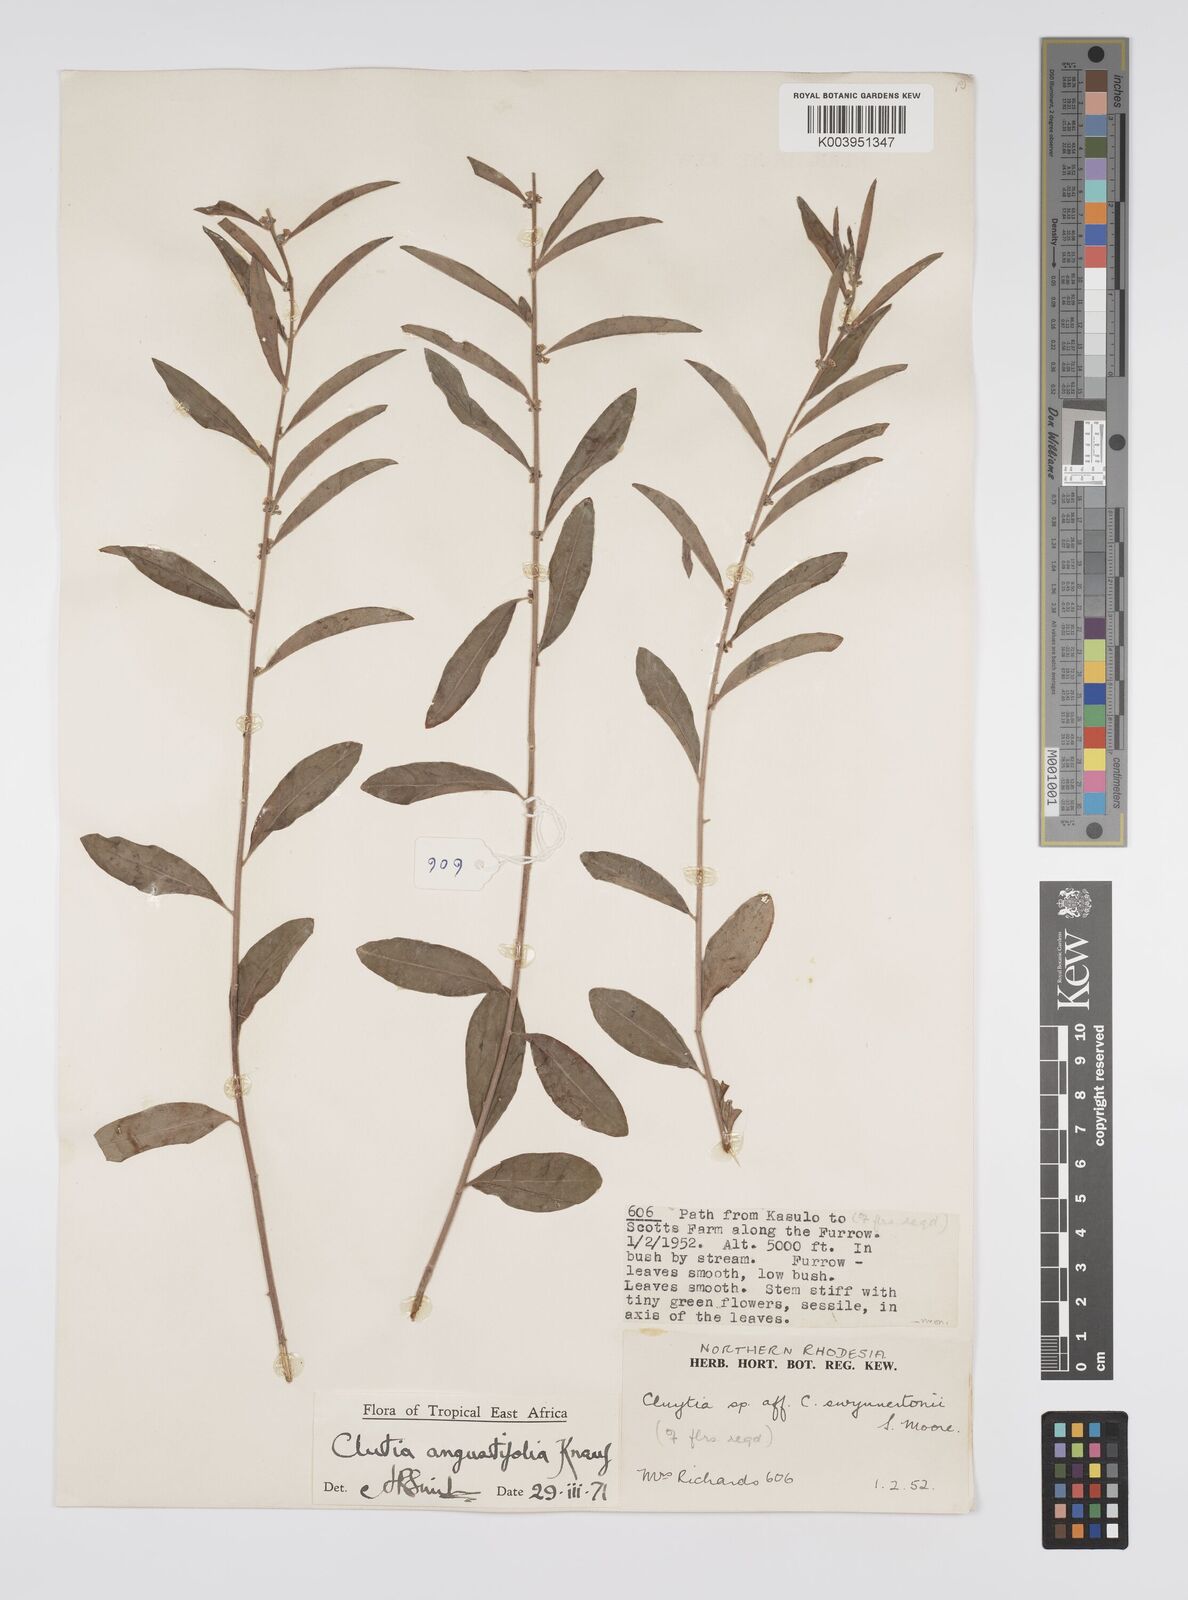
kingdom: Plantae
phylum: Tracheophyta
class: Magnoliopsida
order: Malpighiales
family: Peraceae
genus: Clutia
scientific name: Clutia angustifolia
